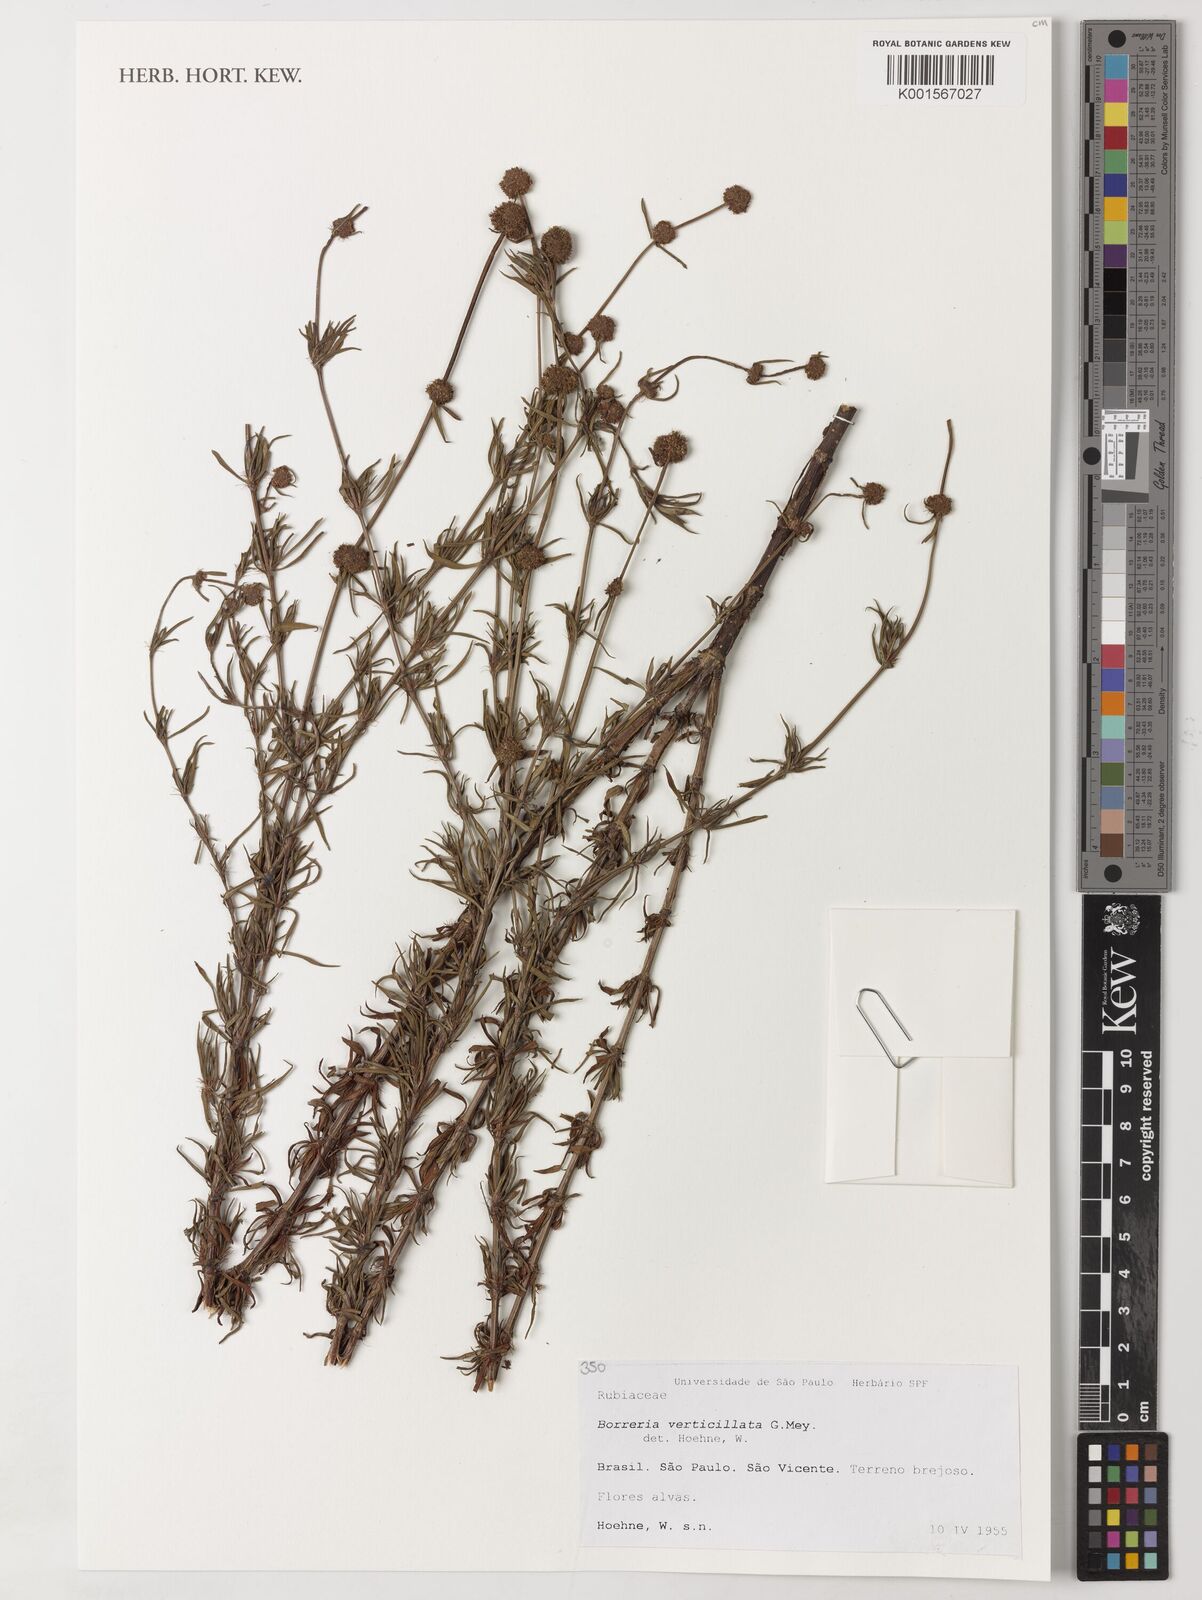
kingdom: Plantae
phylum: Tracheophyta
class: Magnoliopsida
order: Gentianales
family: Rubiaceae
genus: Spermacoce
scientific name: Spermacoce verticillata
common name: Shrubby false buttonweed
